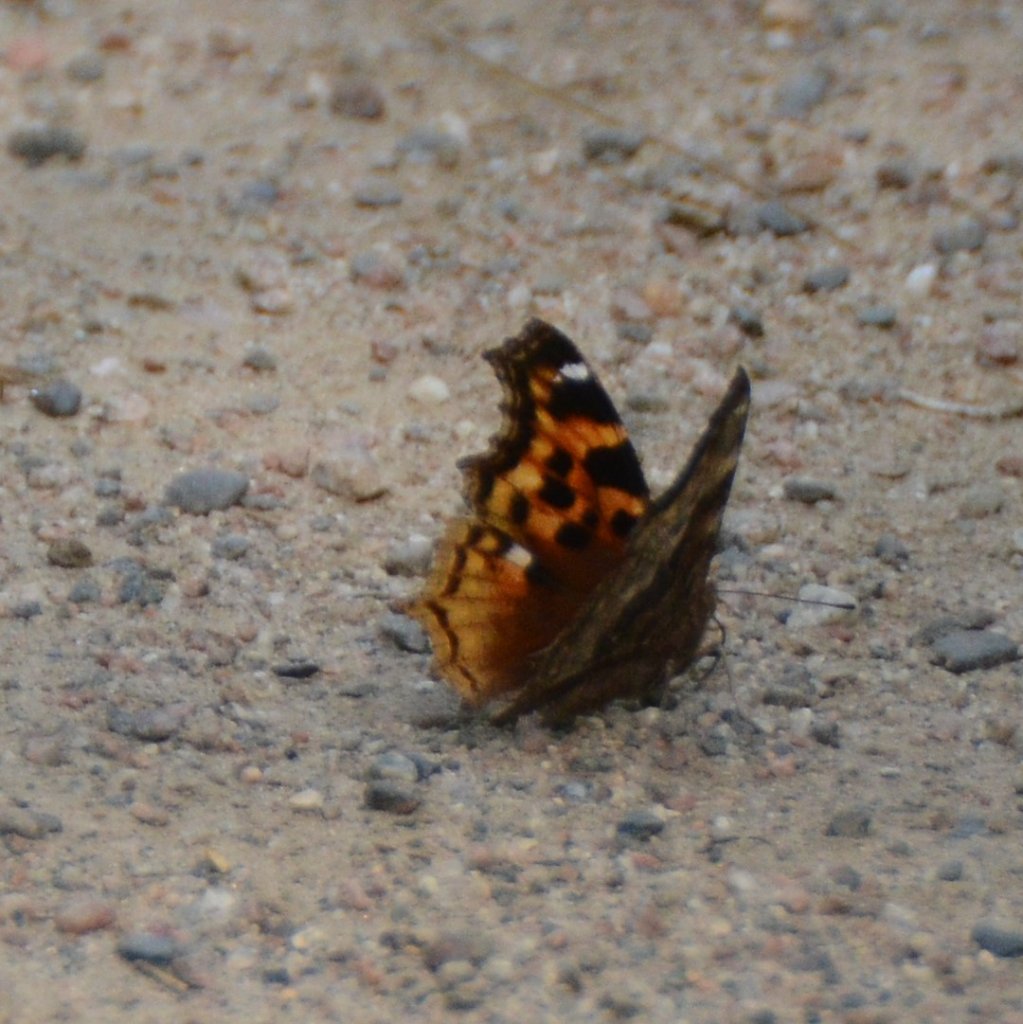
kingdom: Animalia
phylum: Arthropoda
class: Insecta
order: Lepidoptera
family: Nymphalidae
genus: Polygonia
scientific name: Polygonia vaualbum
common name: Compton Tortoiseshell
